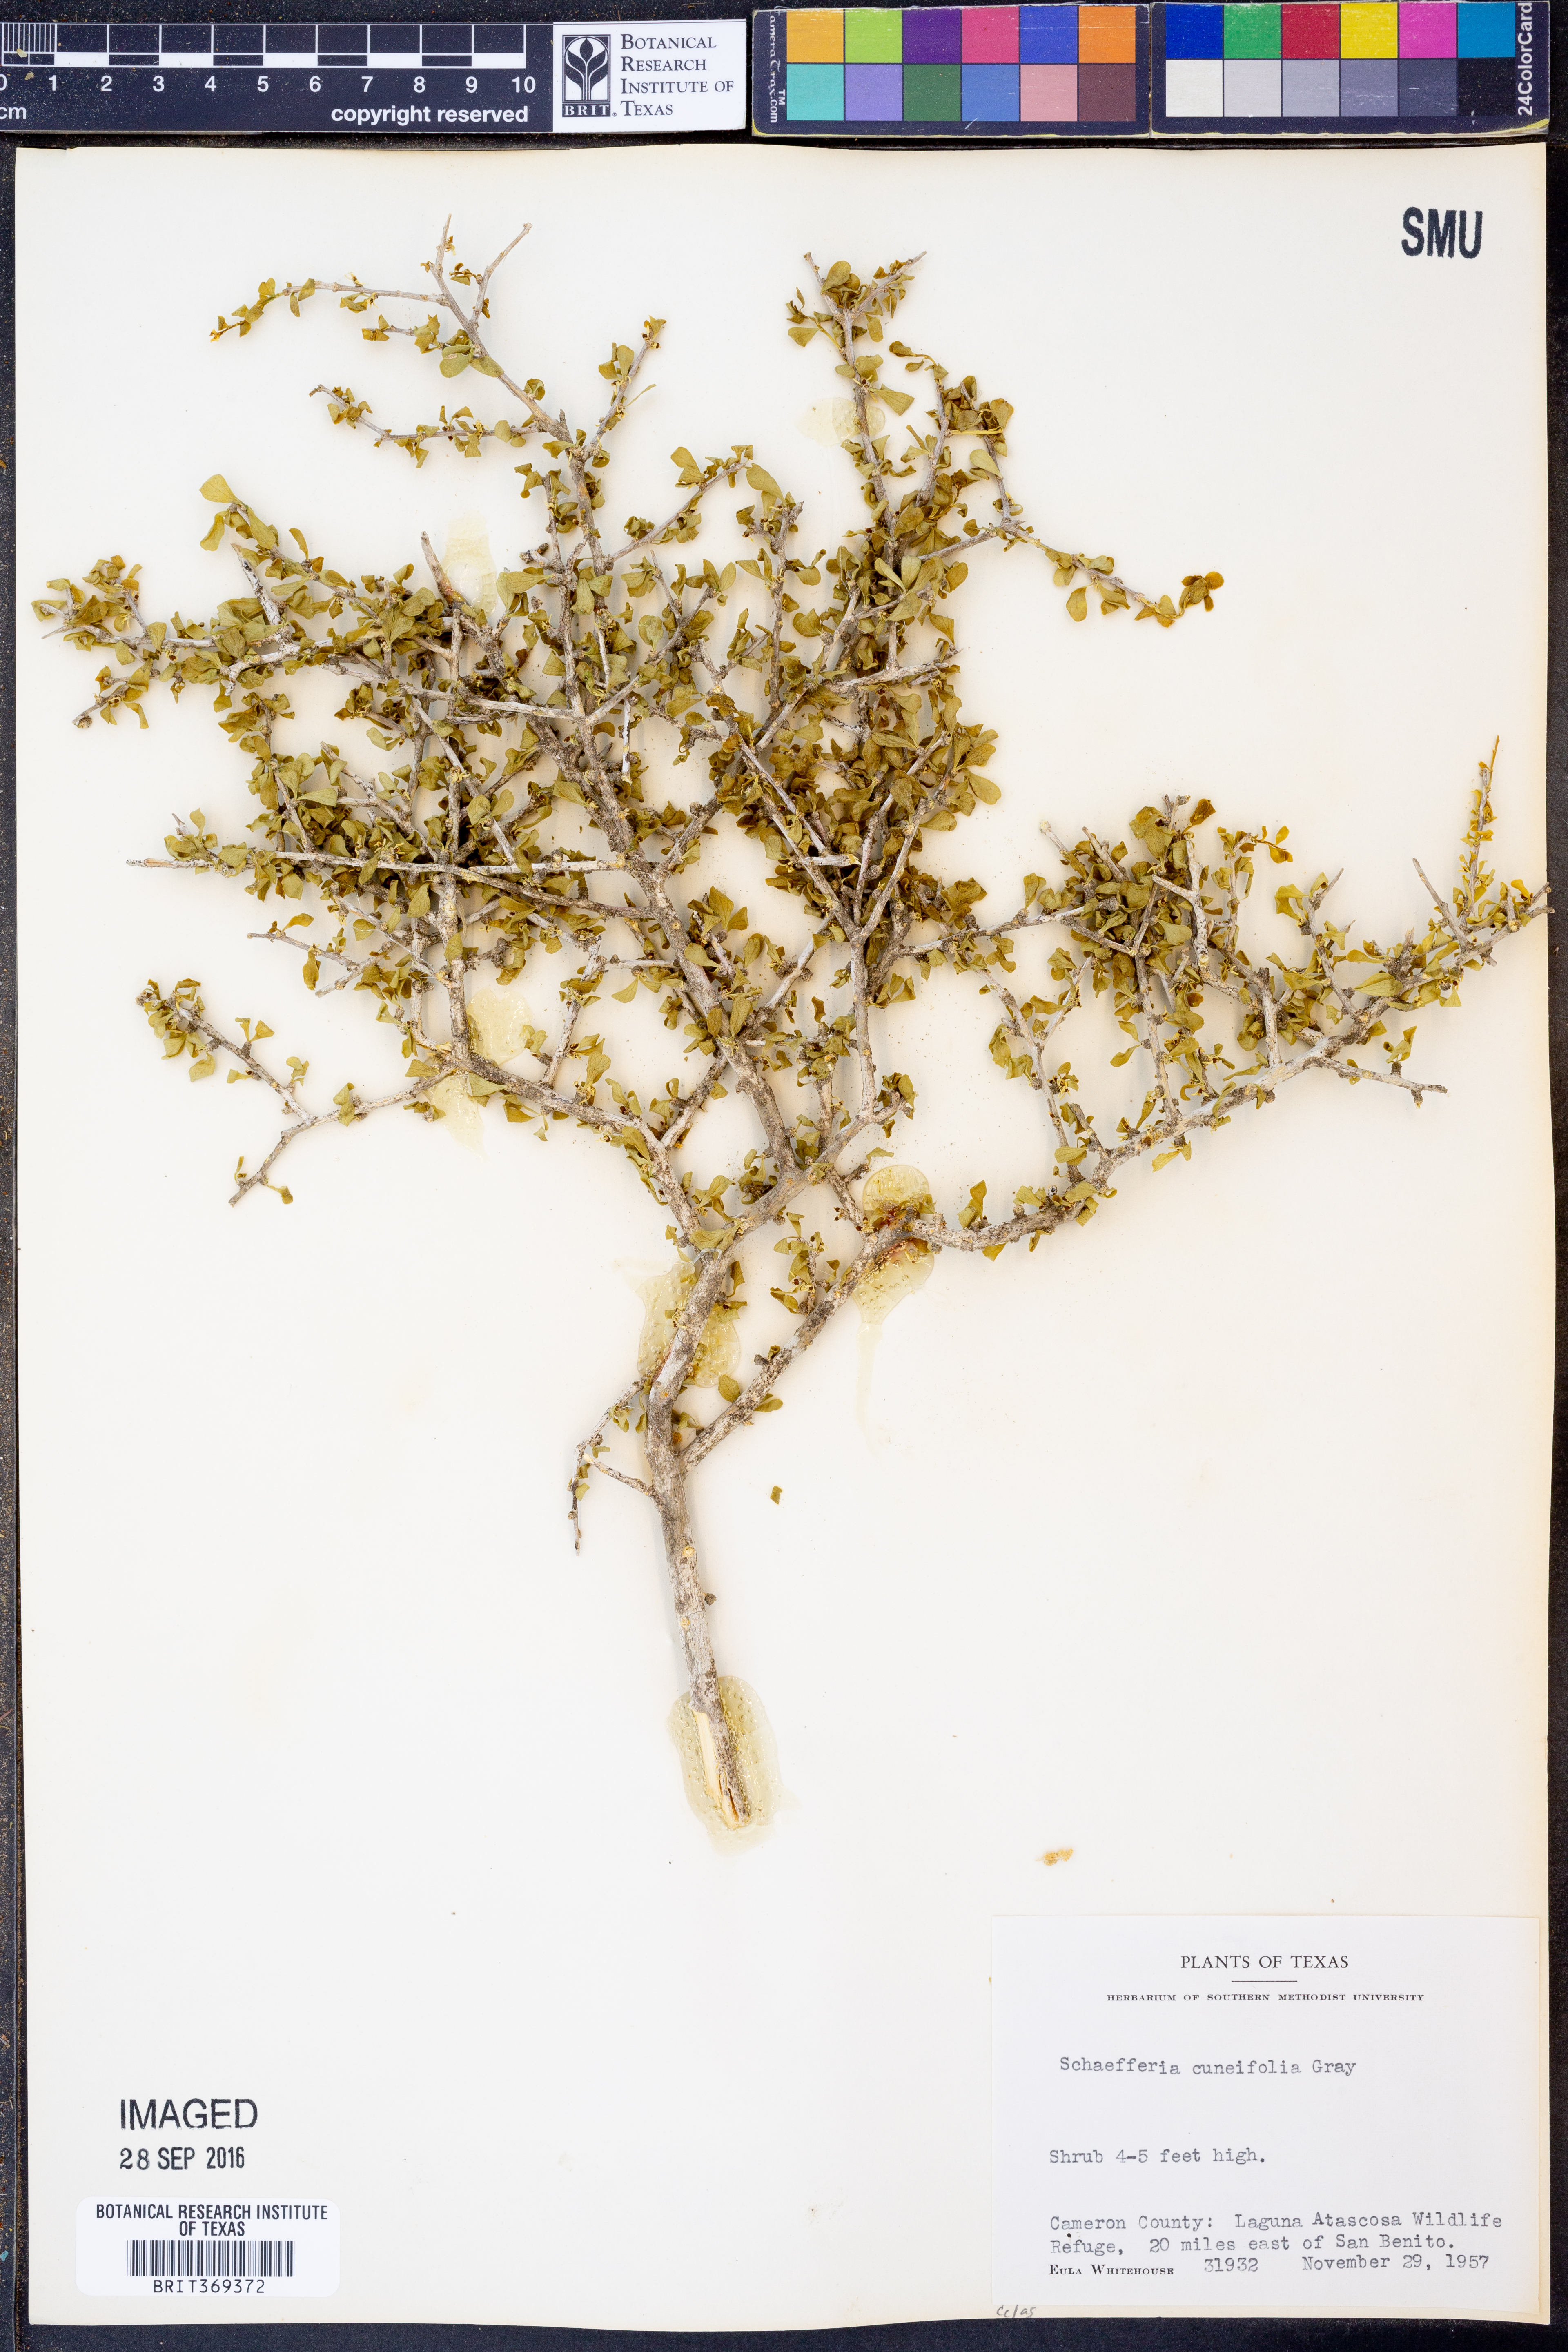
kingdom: Plantae
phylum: Tracheophyta
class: Magnoliopsida
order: Celastrales
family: Celastraceae
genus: Schaefferia
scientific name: Schaefferia cuneifolia
